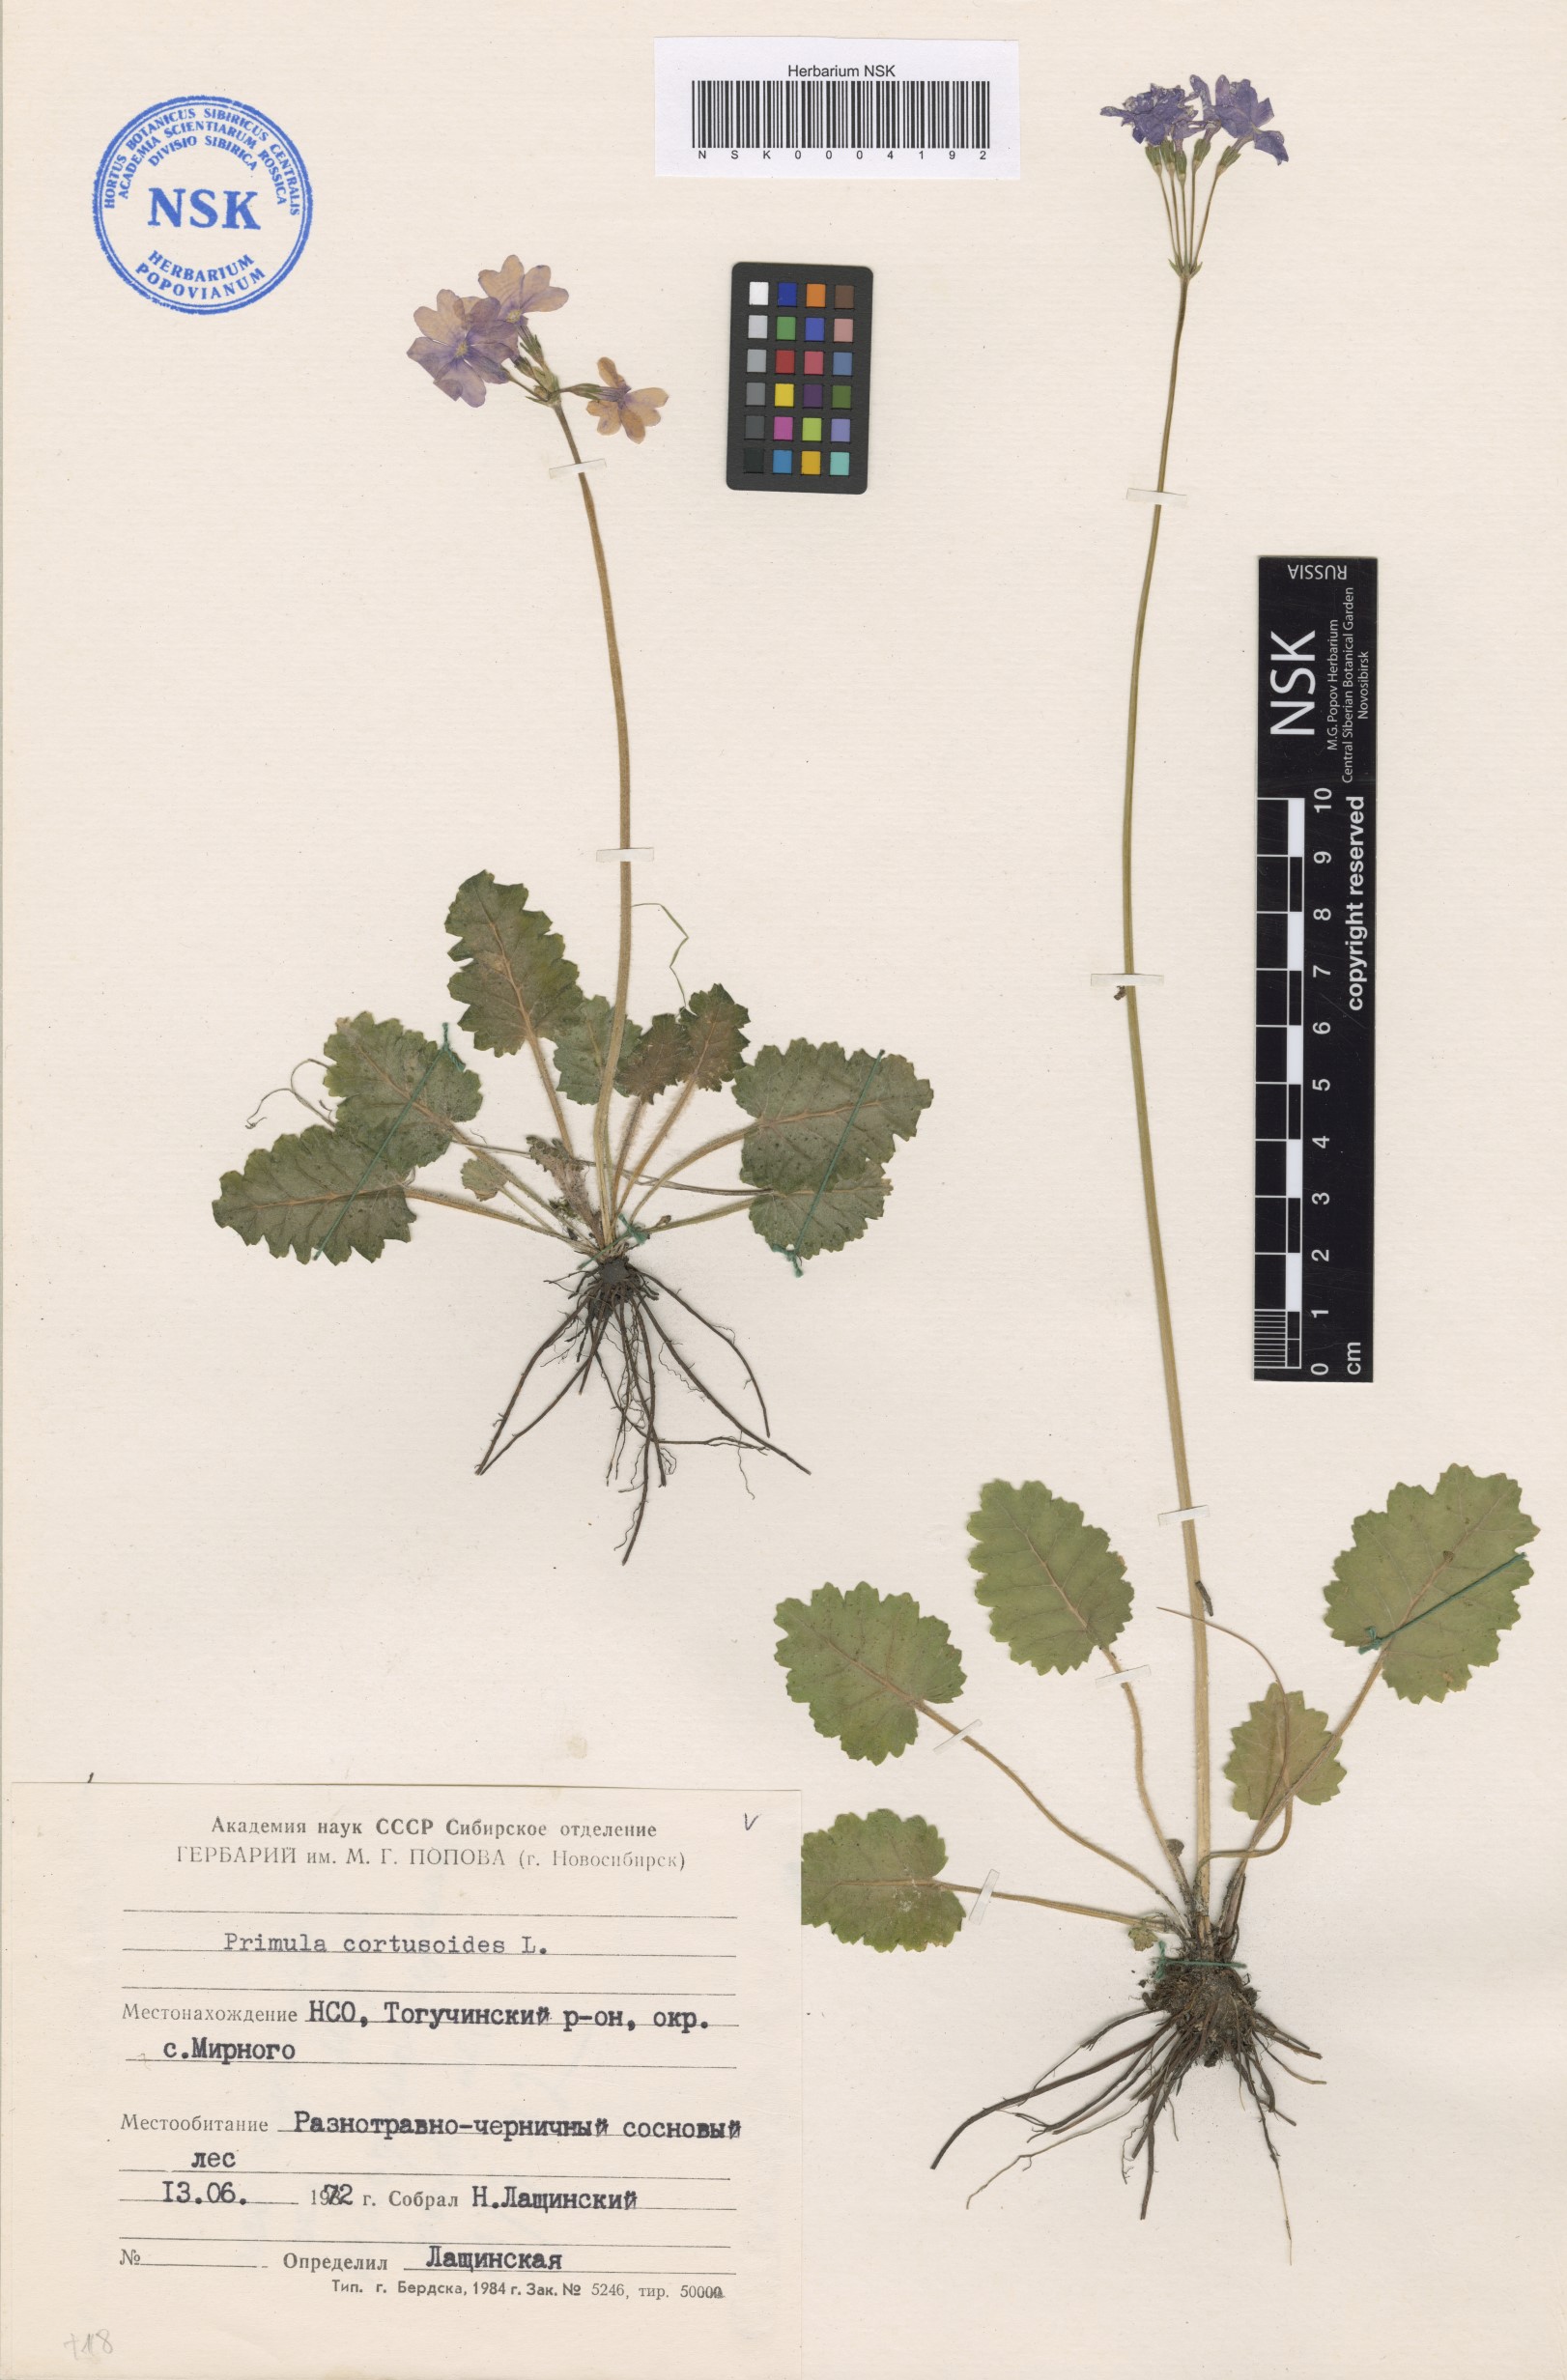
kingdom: Plantae
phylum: Tracheophyta
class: Magnoliopsida
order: Ericales
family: Primulaceae
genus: Primula
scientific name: Primula cortusoides
